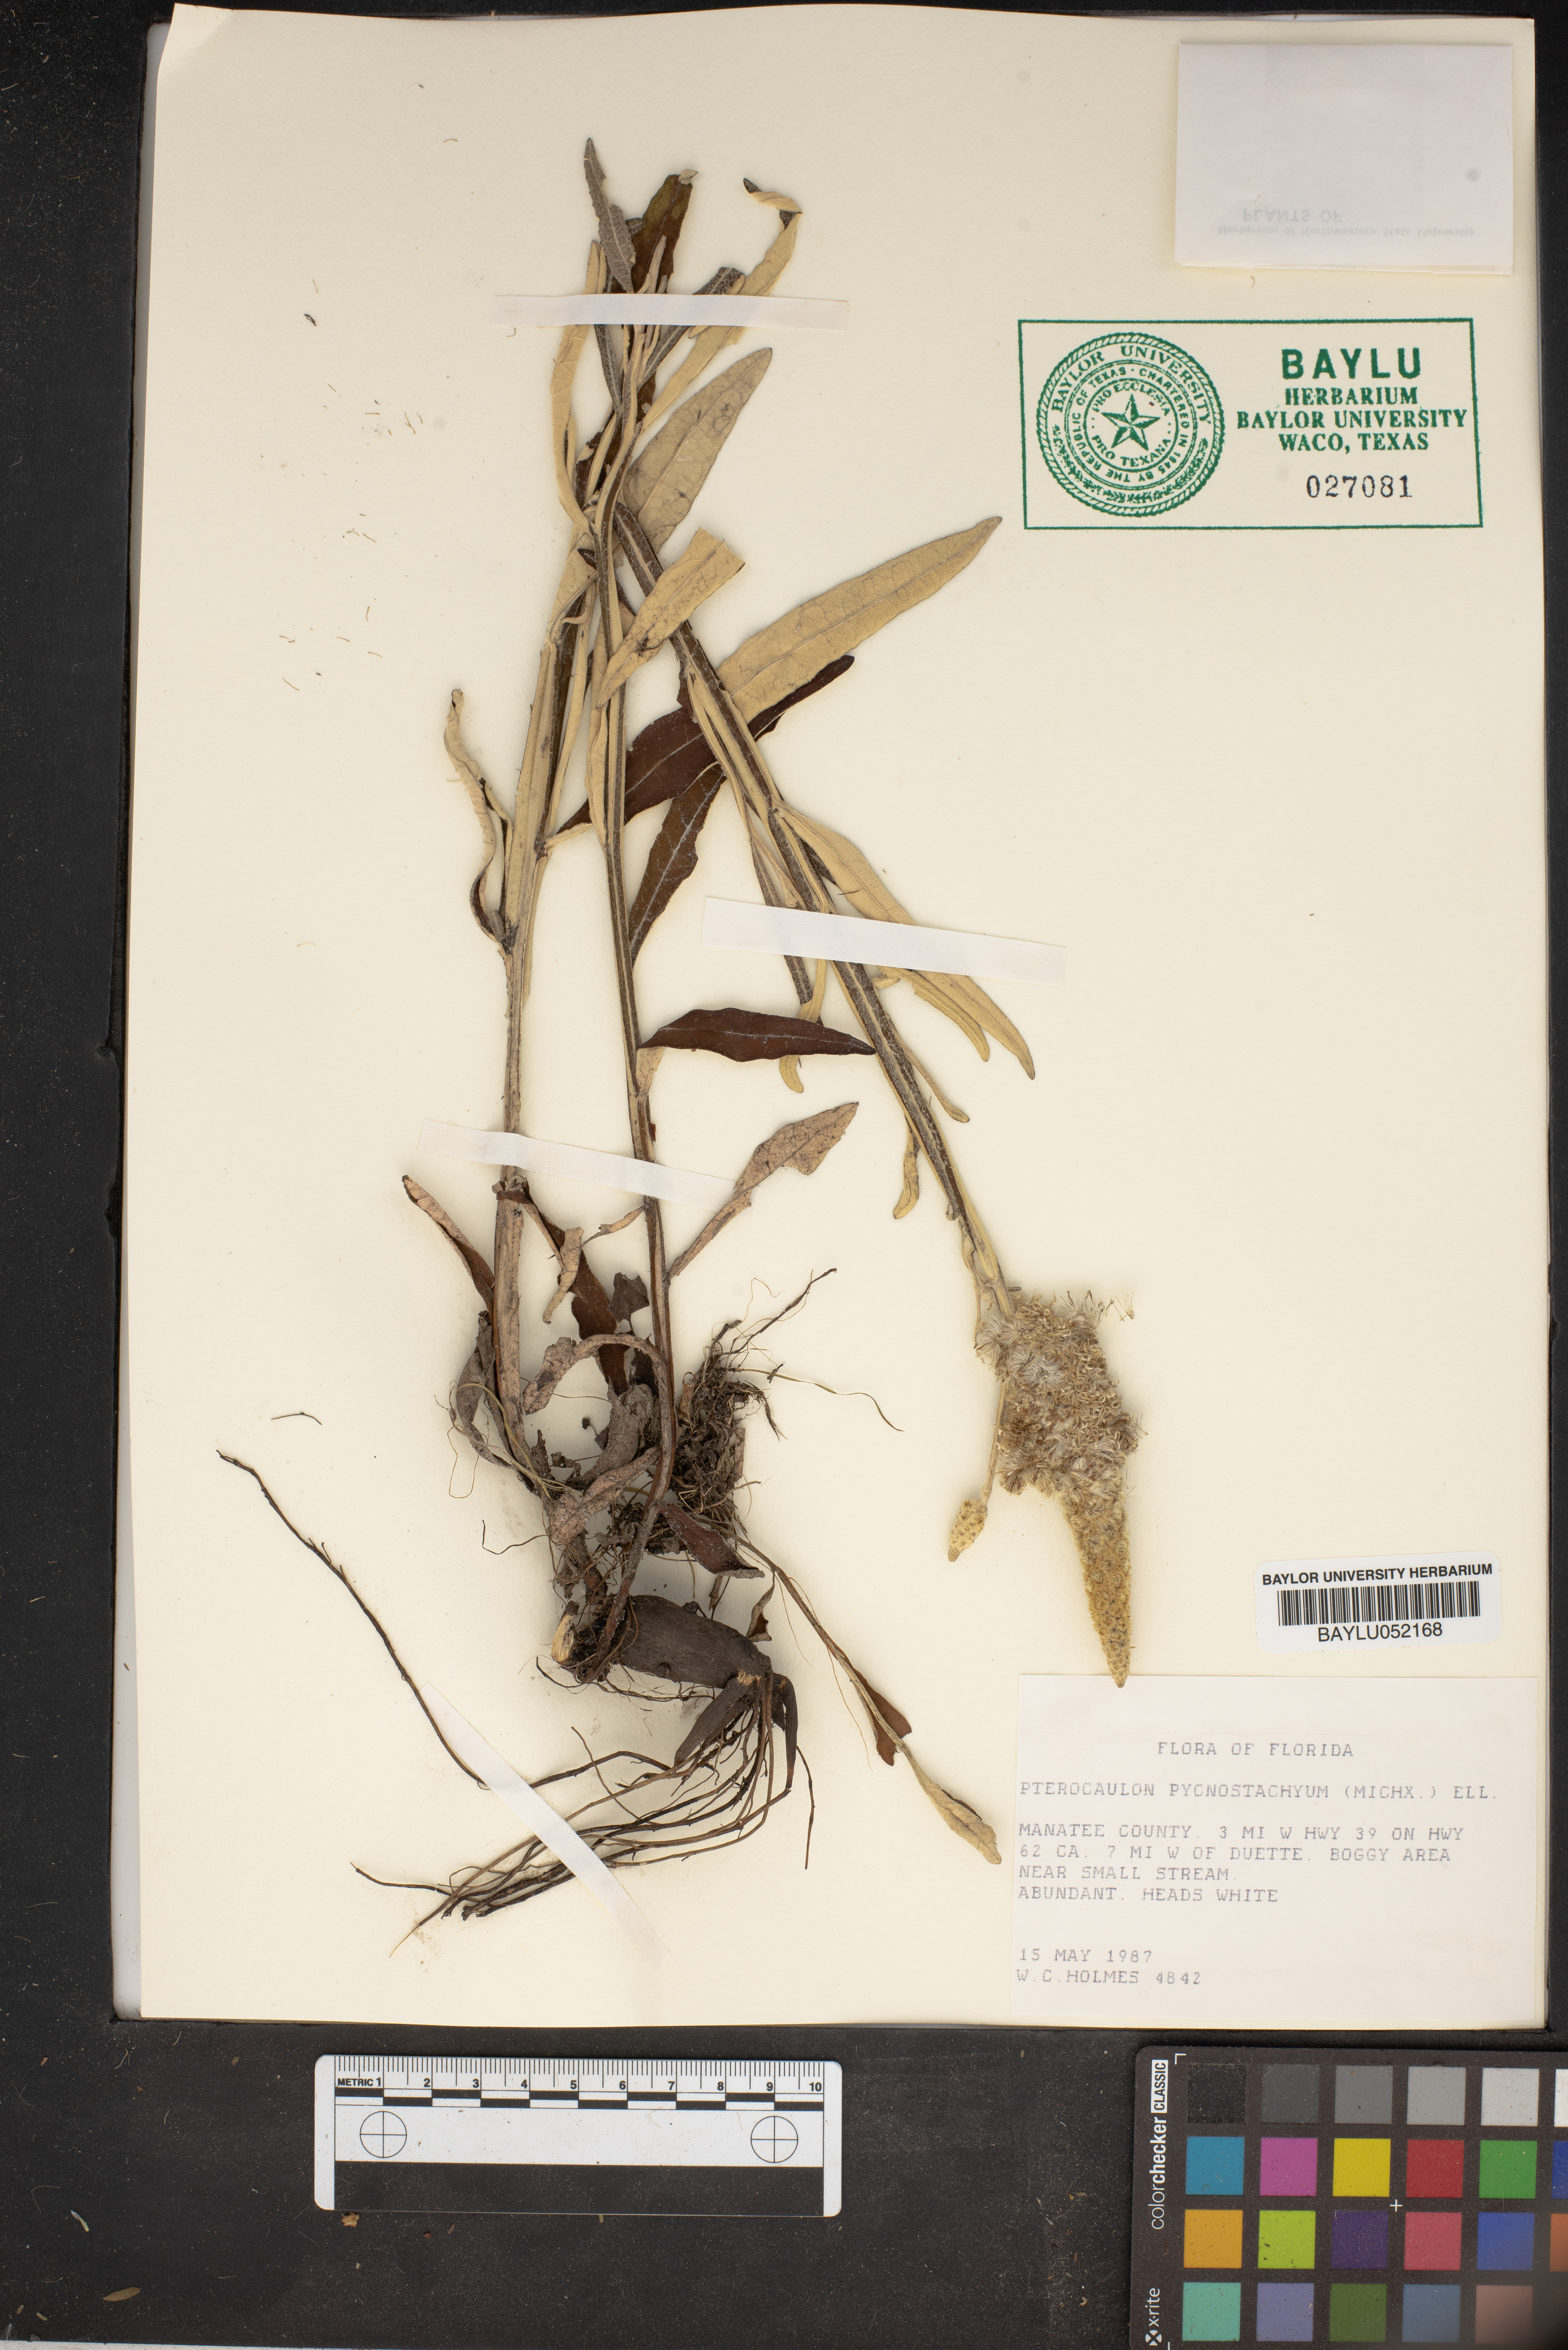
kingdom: Plantae
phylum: Tracheophyta
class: Magnoliopsida
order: Asterales
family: Asteraceae
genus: Pterocaulon
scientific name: Pterocaulon pycnostachyum
